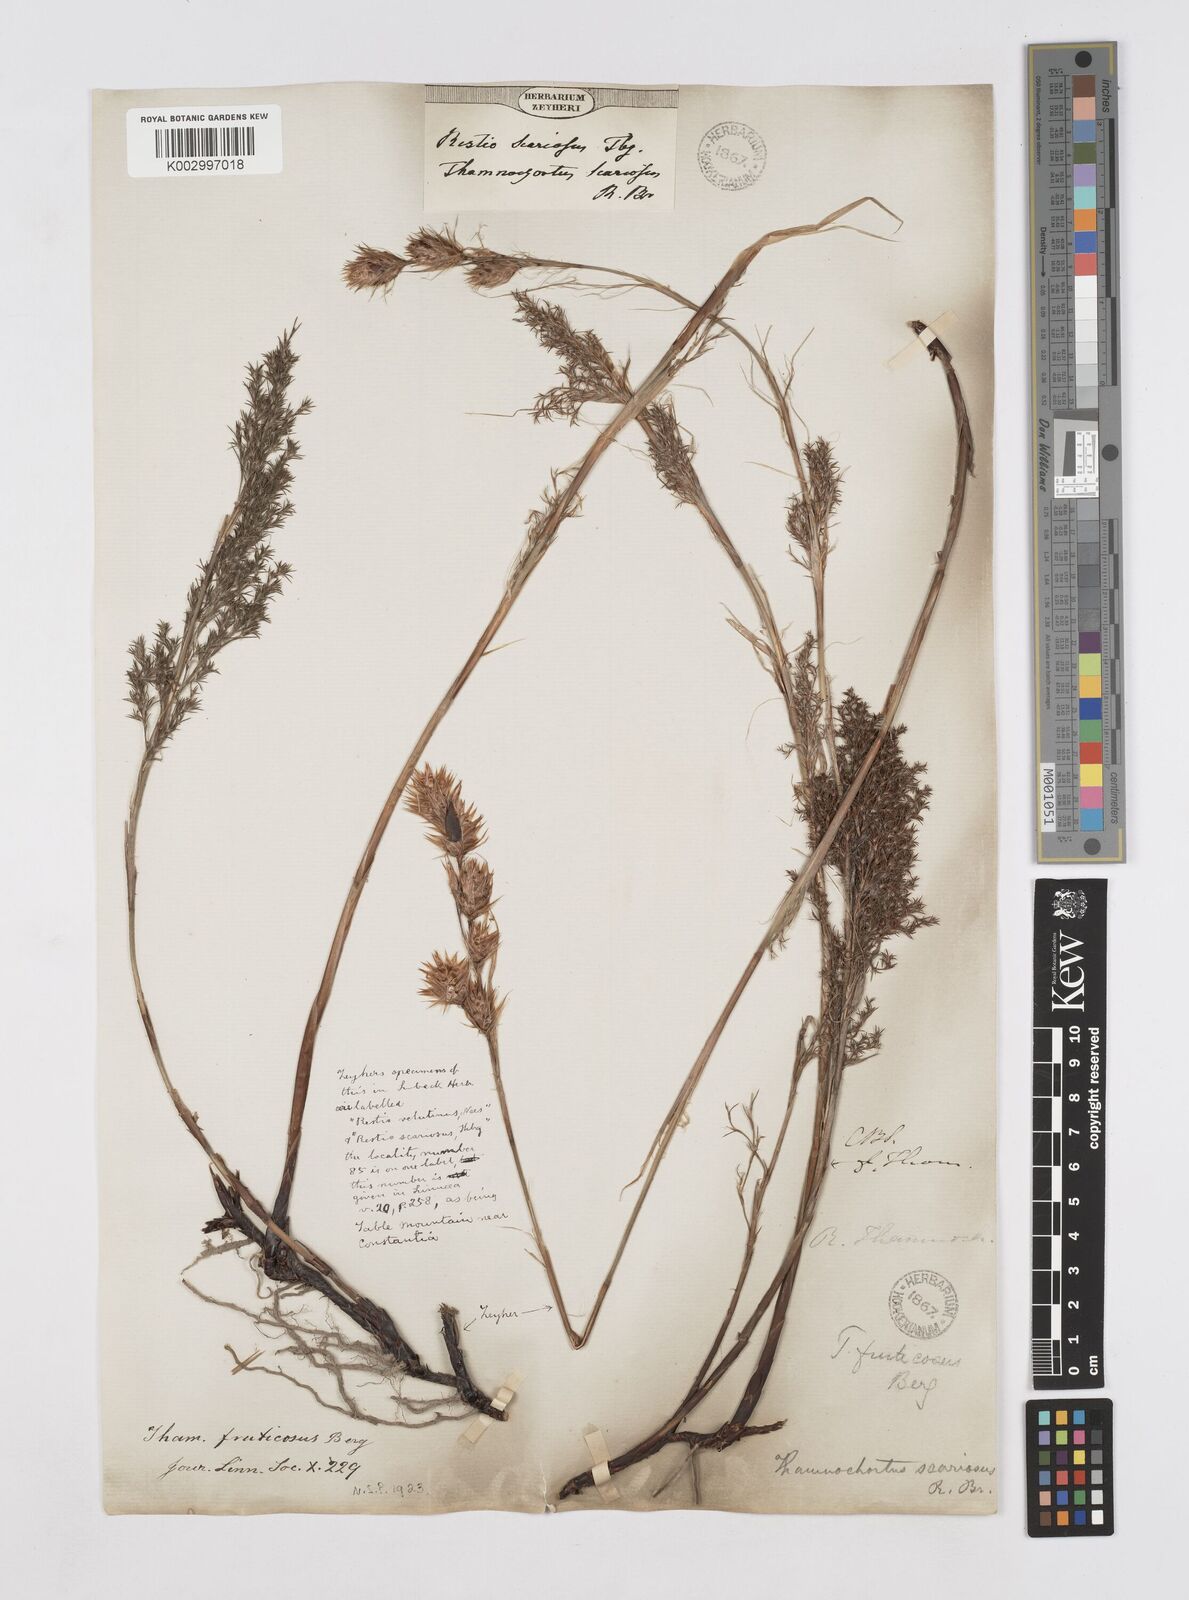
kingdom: Plantae
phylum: Tracheophyta
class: Liliopsida
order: Poales
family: Restionaceae
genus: Thamnochortus
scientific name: Thamnochortus fruticosus
